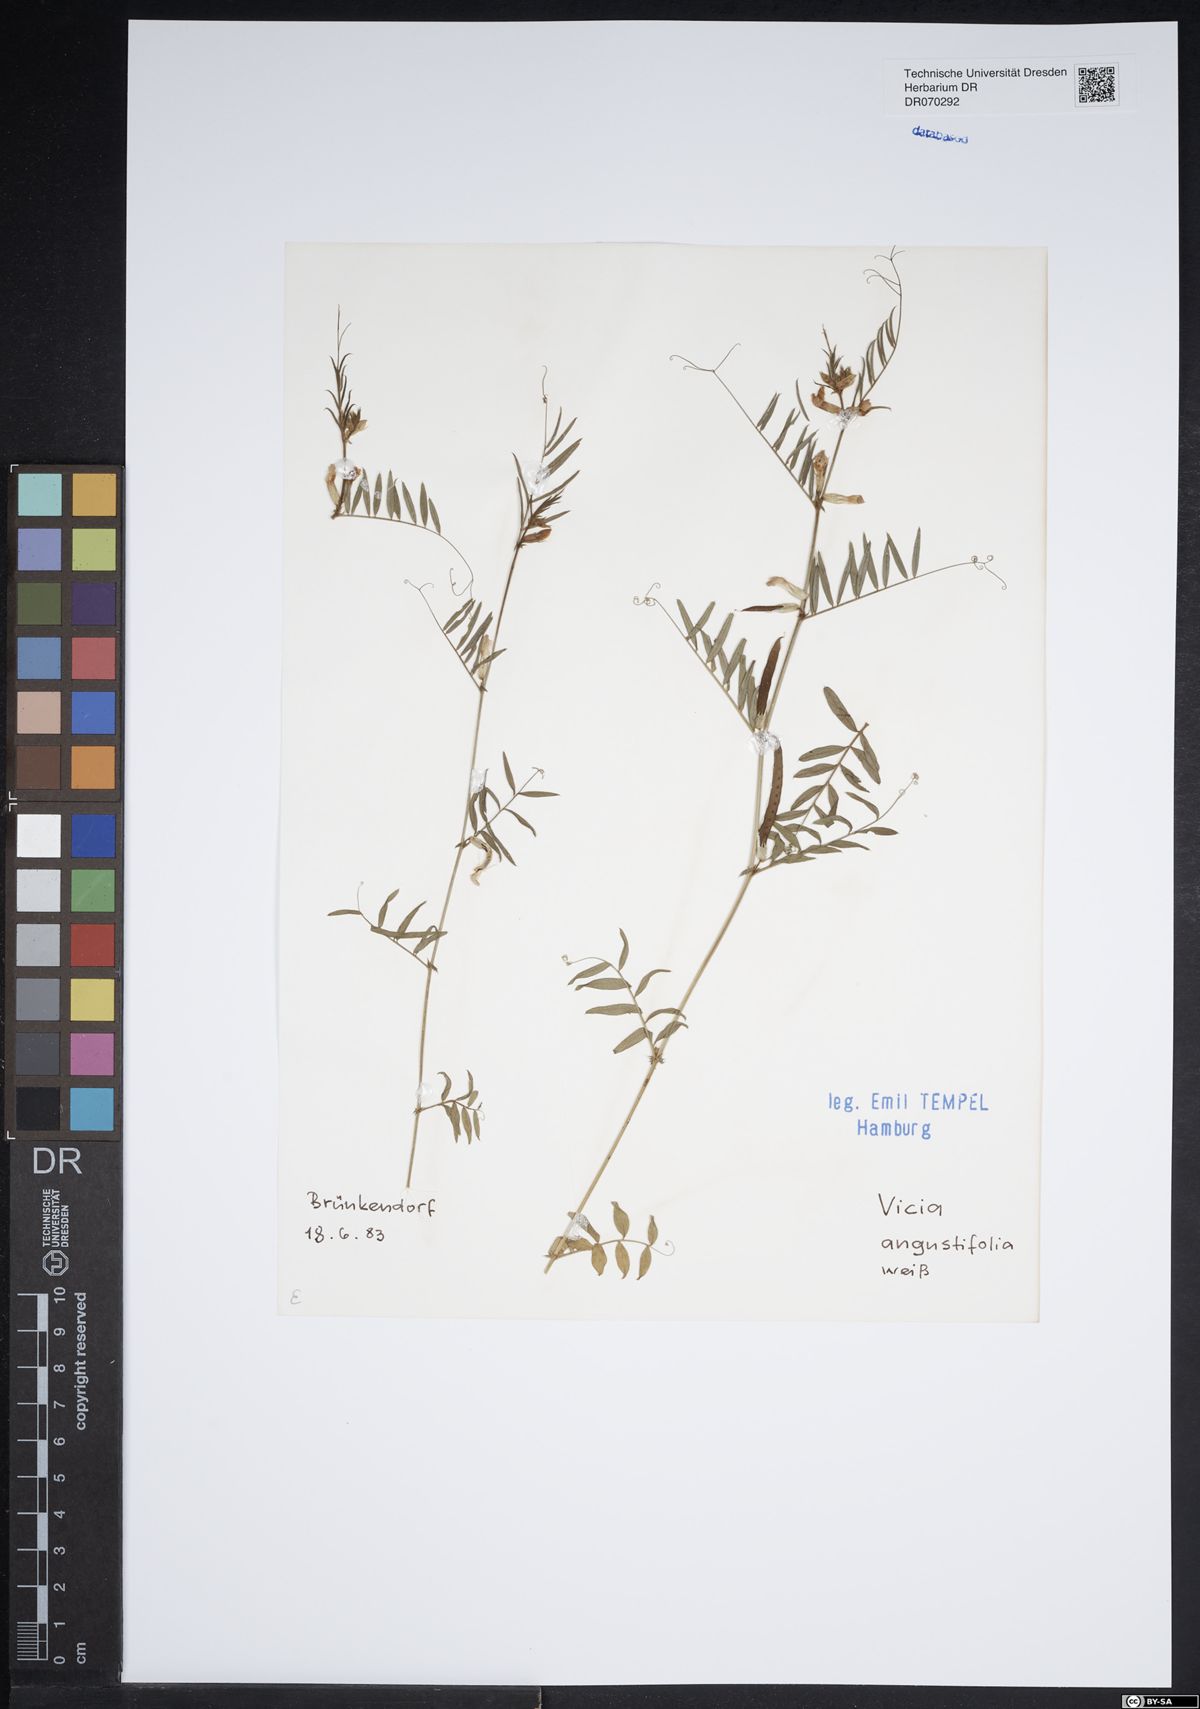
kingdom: Plantae
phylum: Tracheophyta
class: Magnoliopsida
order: Fabales
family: Fabaceae
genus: Vicia
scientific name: Vicia sativa
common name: Garden vetch
